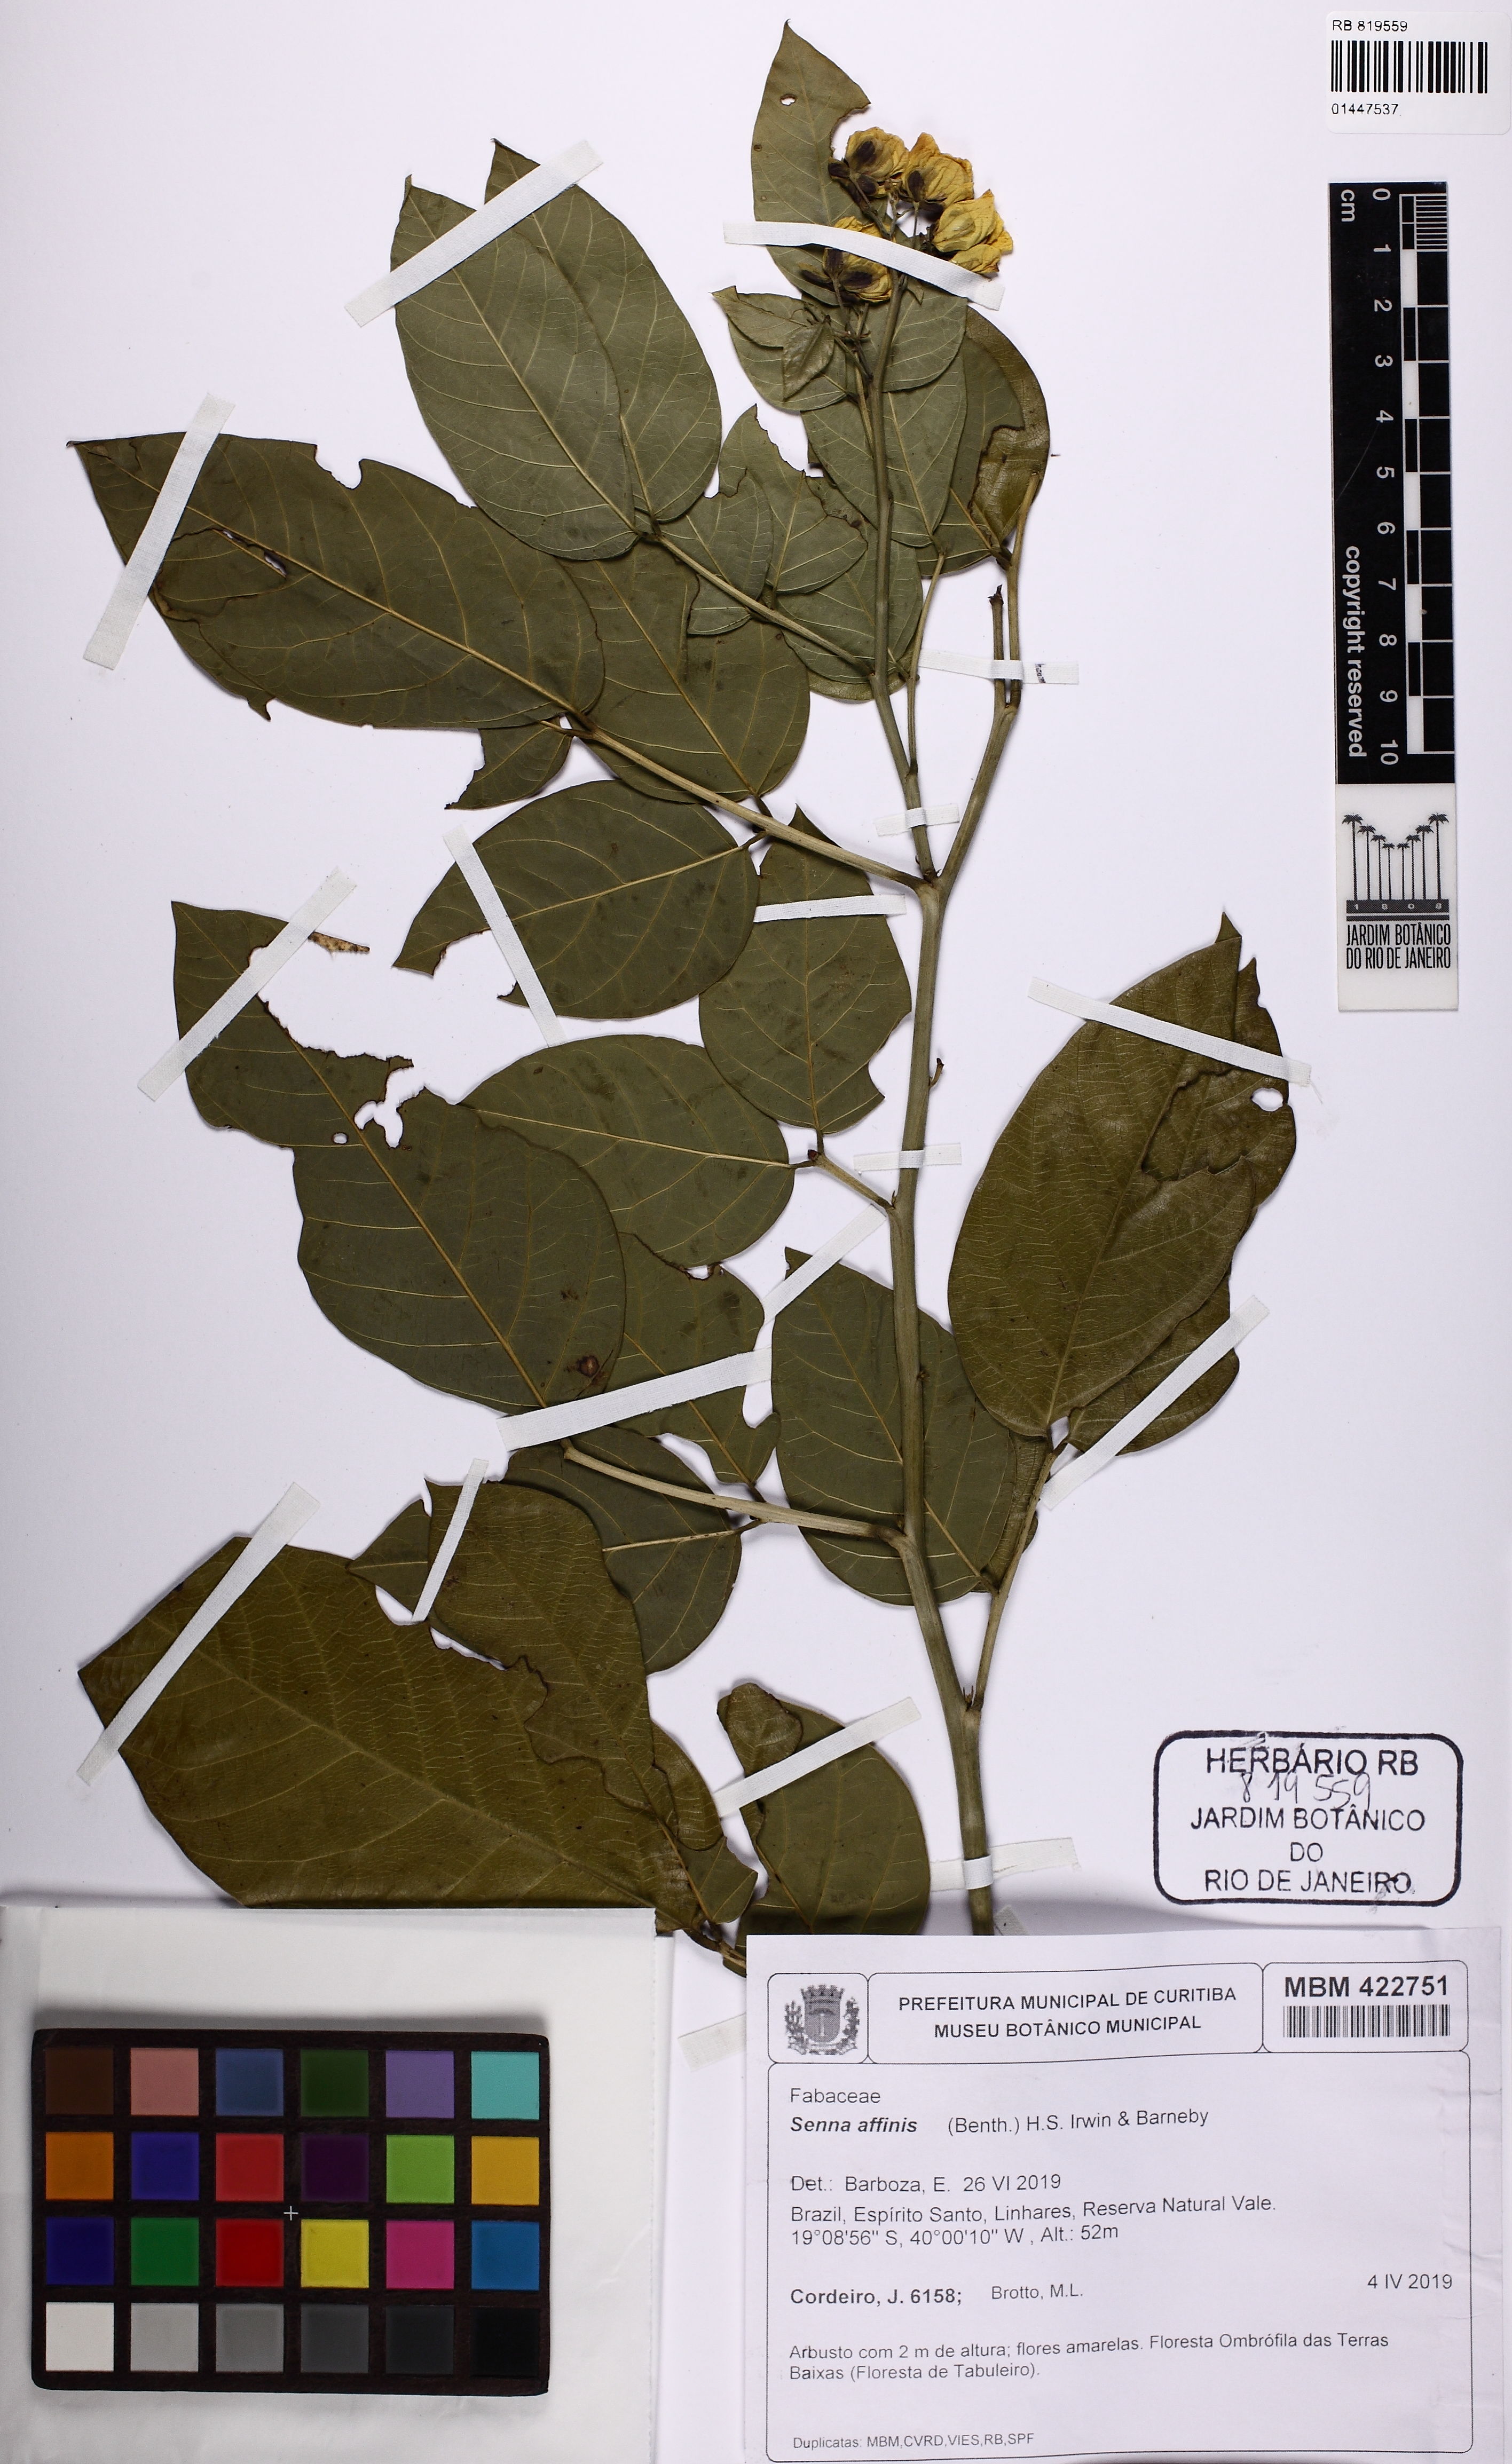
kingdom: Plantae
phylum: Tracheophyta
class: Magnoliopsida
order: Fabales
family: Fabaceae
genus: Senna
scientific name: Senna affinis
